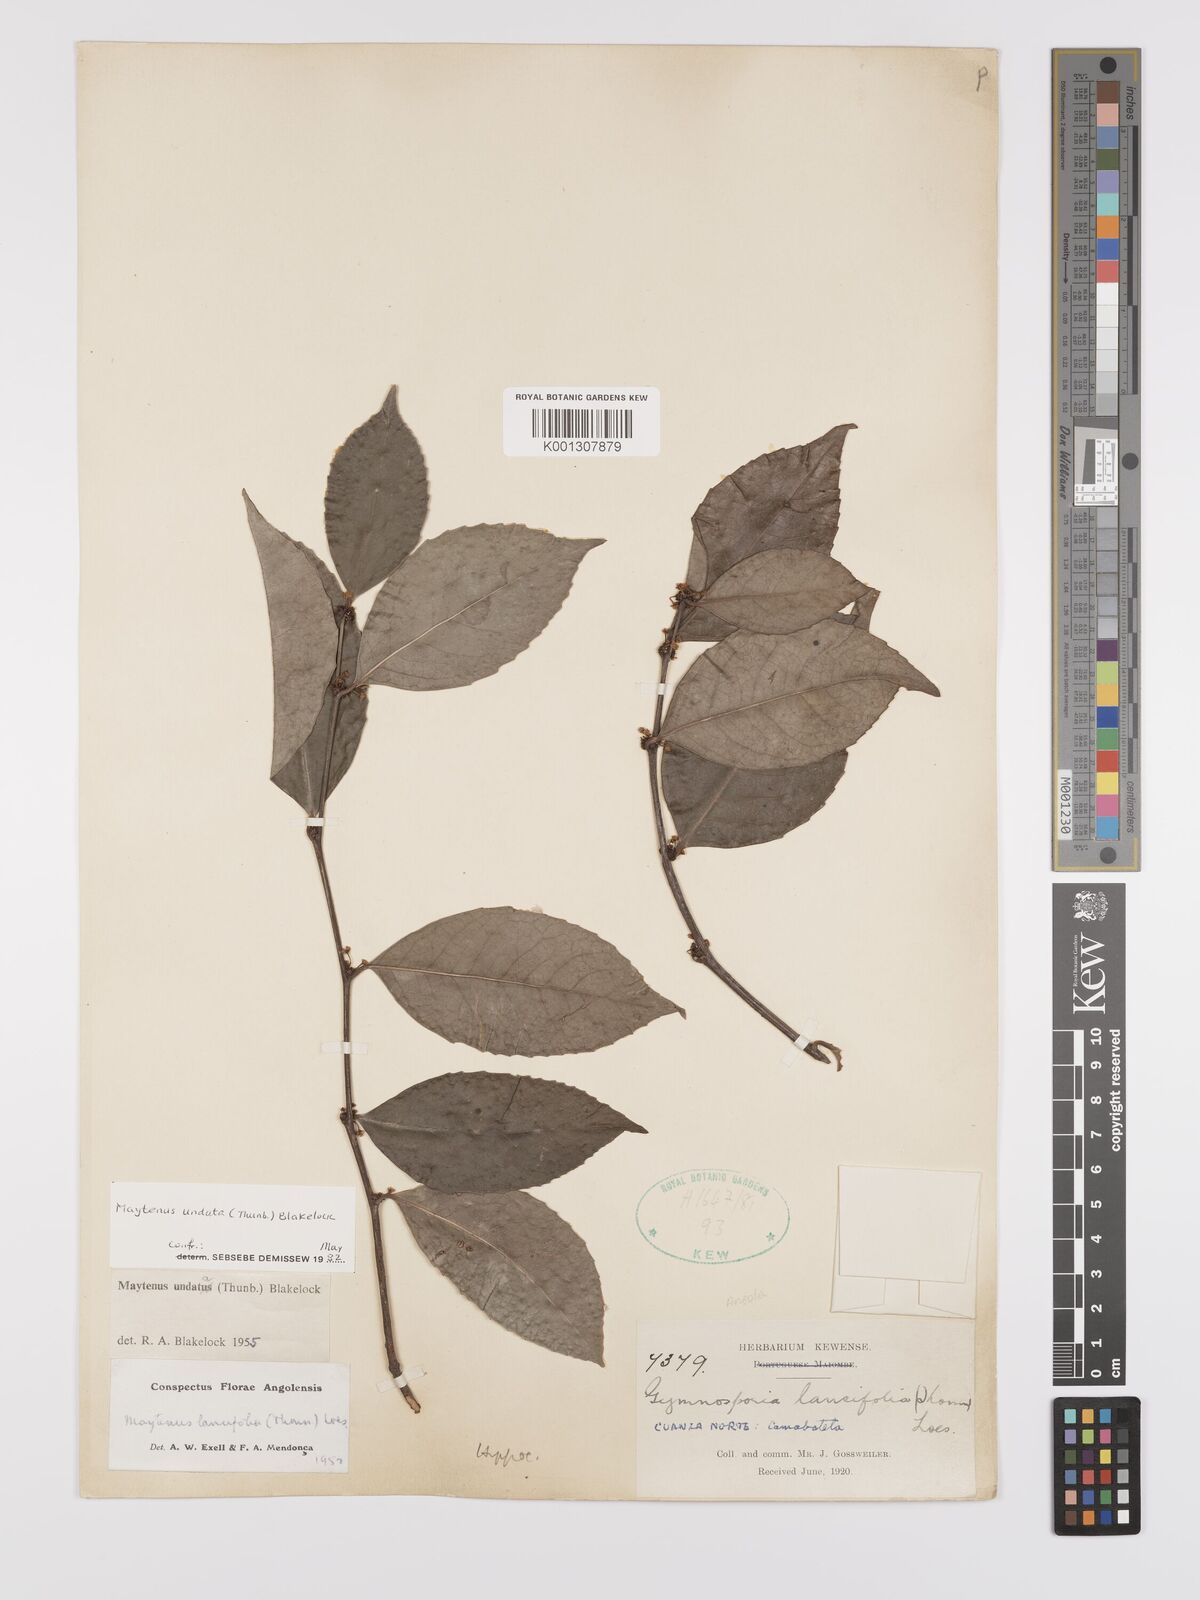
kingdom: Plantae
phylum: Tracheophyta
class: Magnoliopsida
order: Celastrales
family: Celastraceae
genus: Gymnosporia
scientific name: Gymnosporia undata
